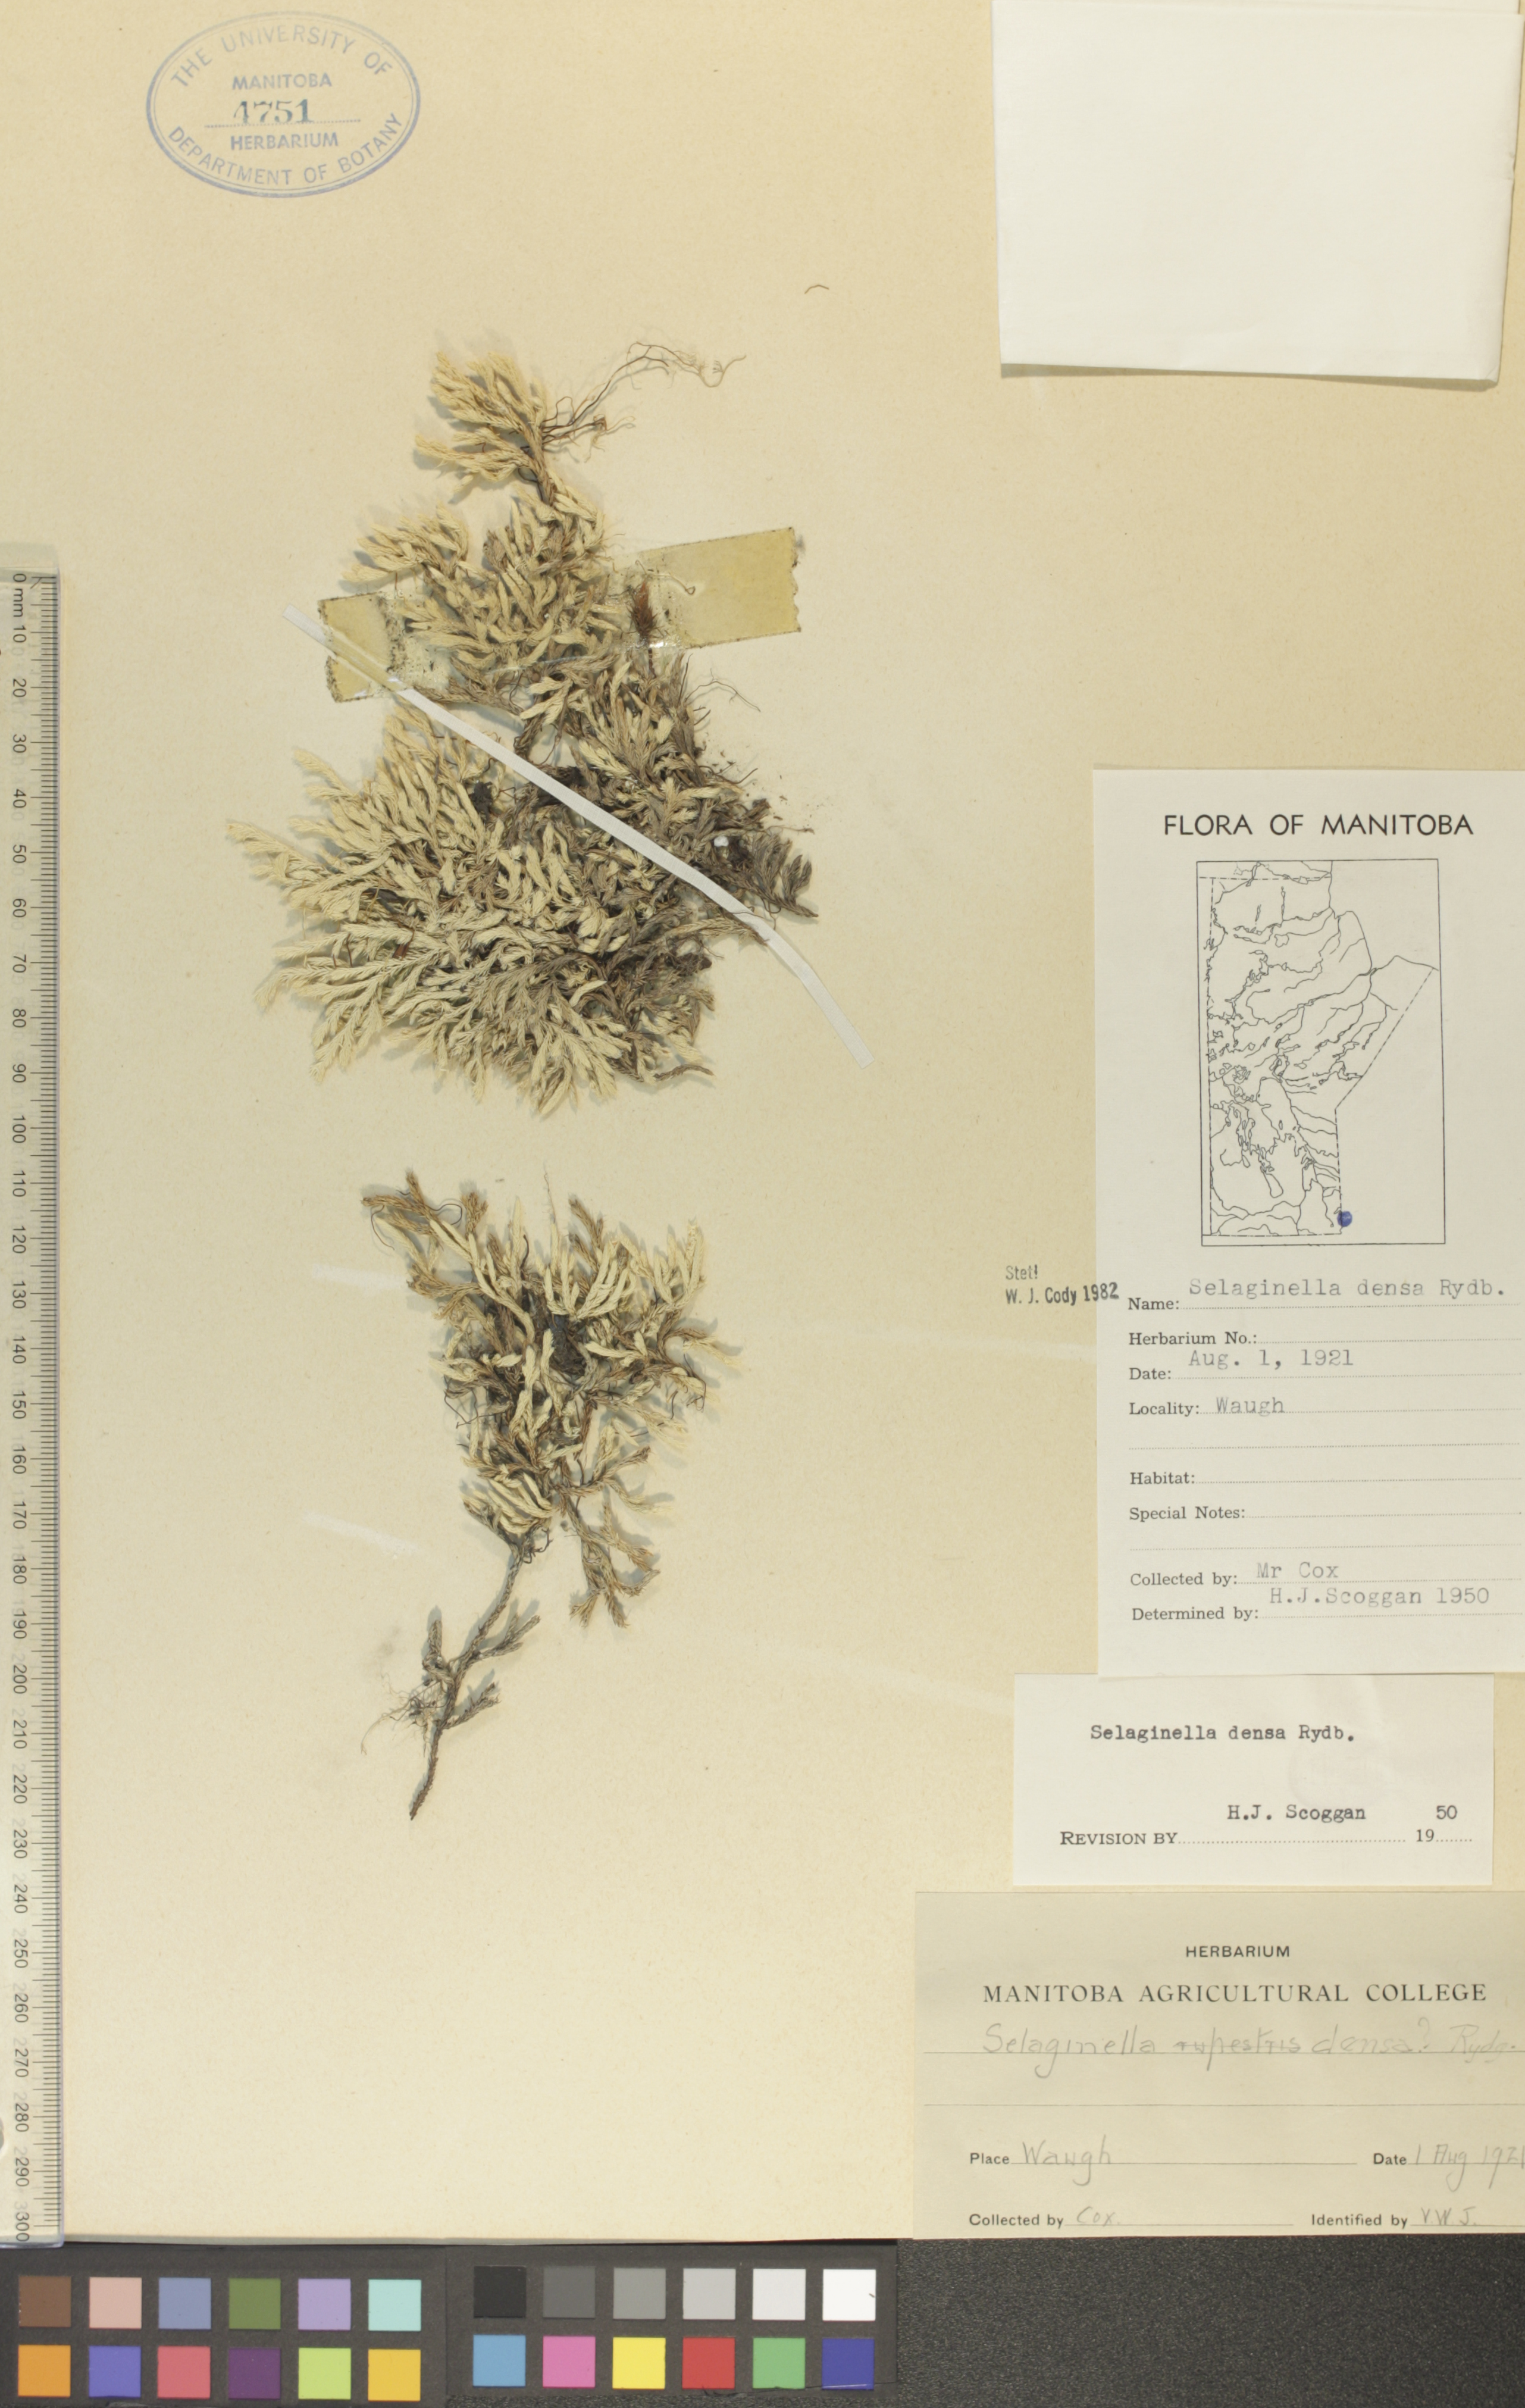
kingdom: Plantae
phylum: Tracheophyta
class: Lycopodiopsida
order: Selaginellales
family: Selaginellaceae
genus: Selaginella
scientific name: Selaginella densa
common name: Mountain spike-moss
